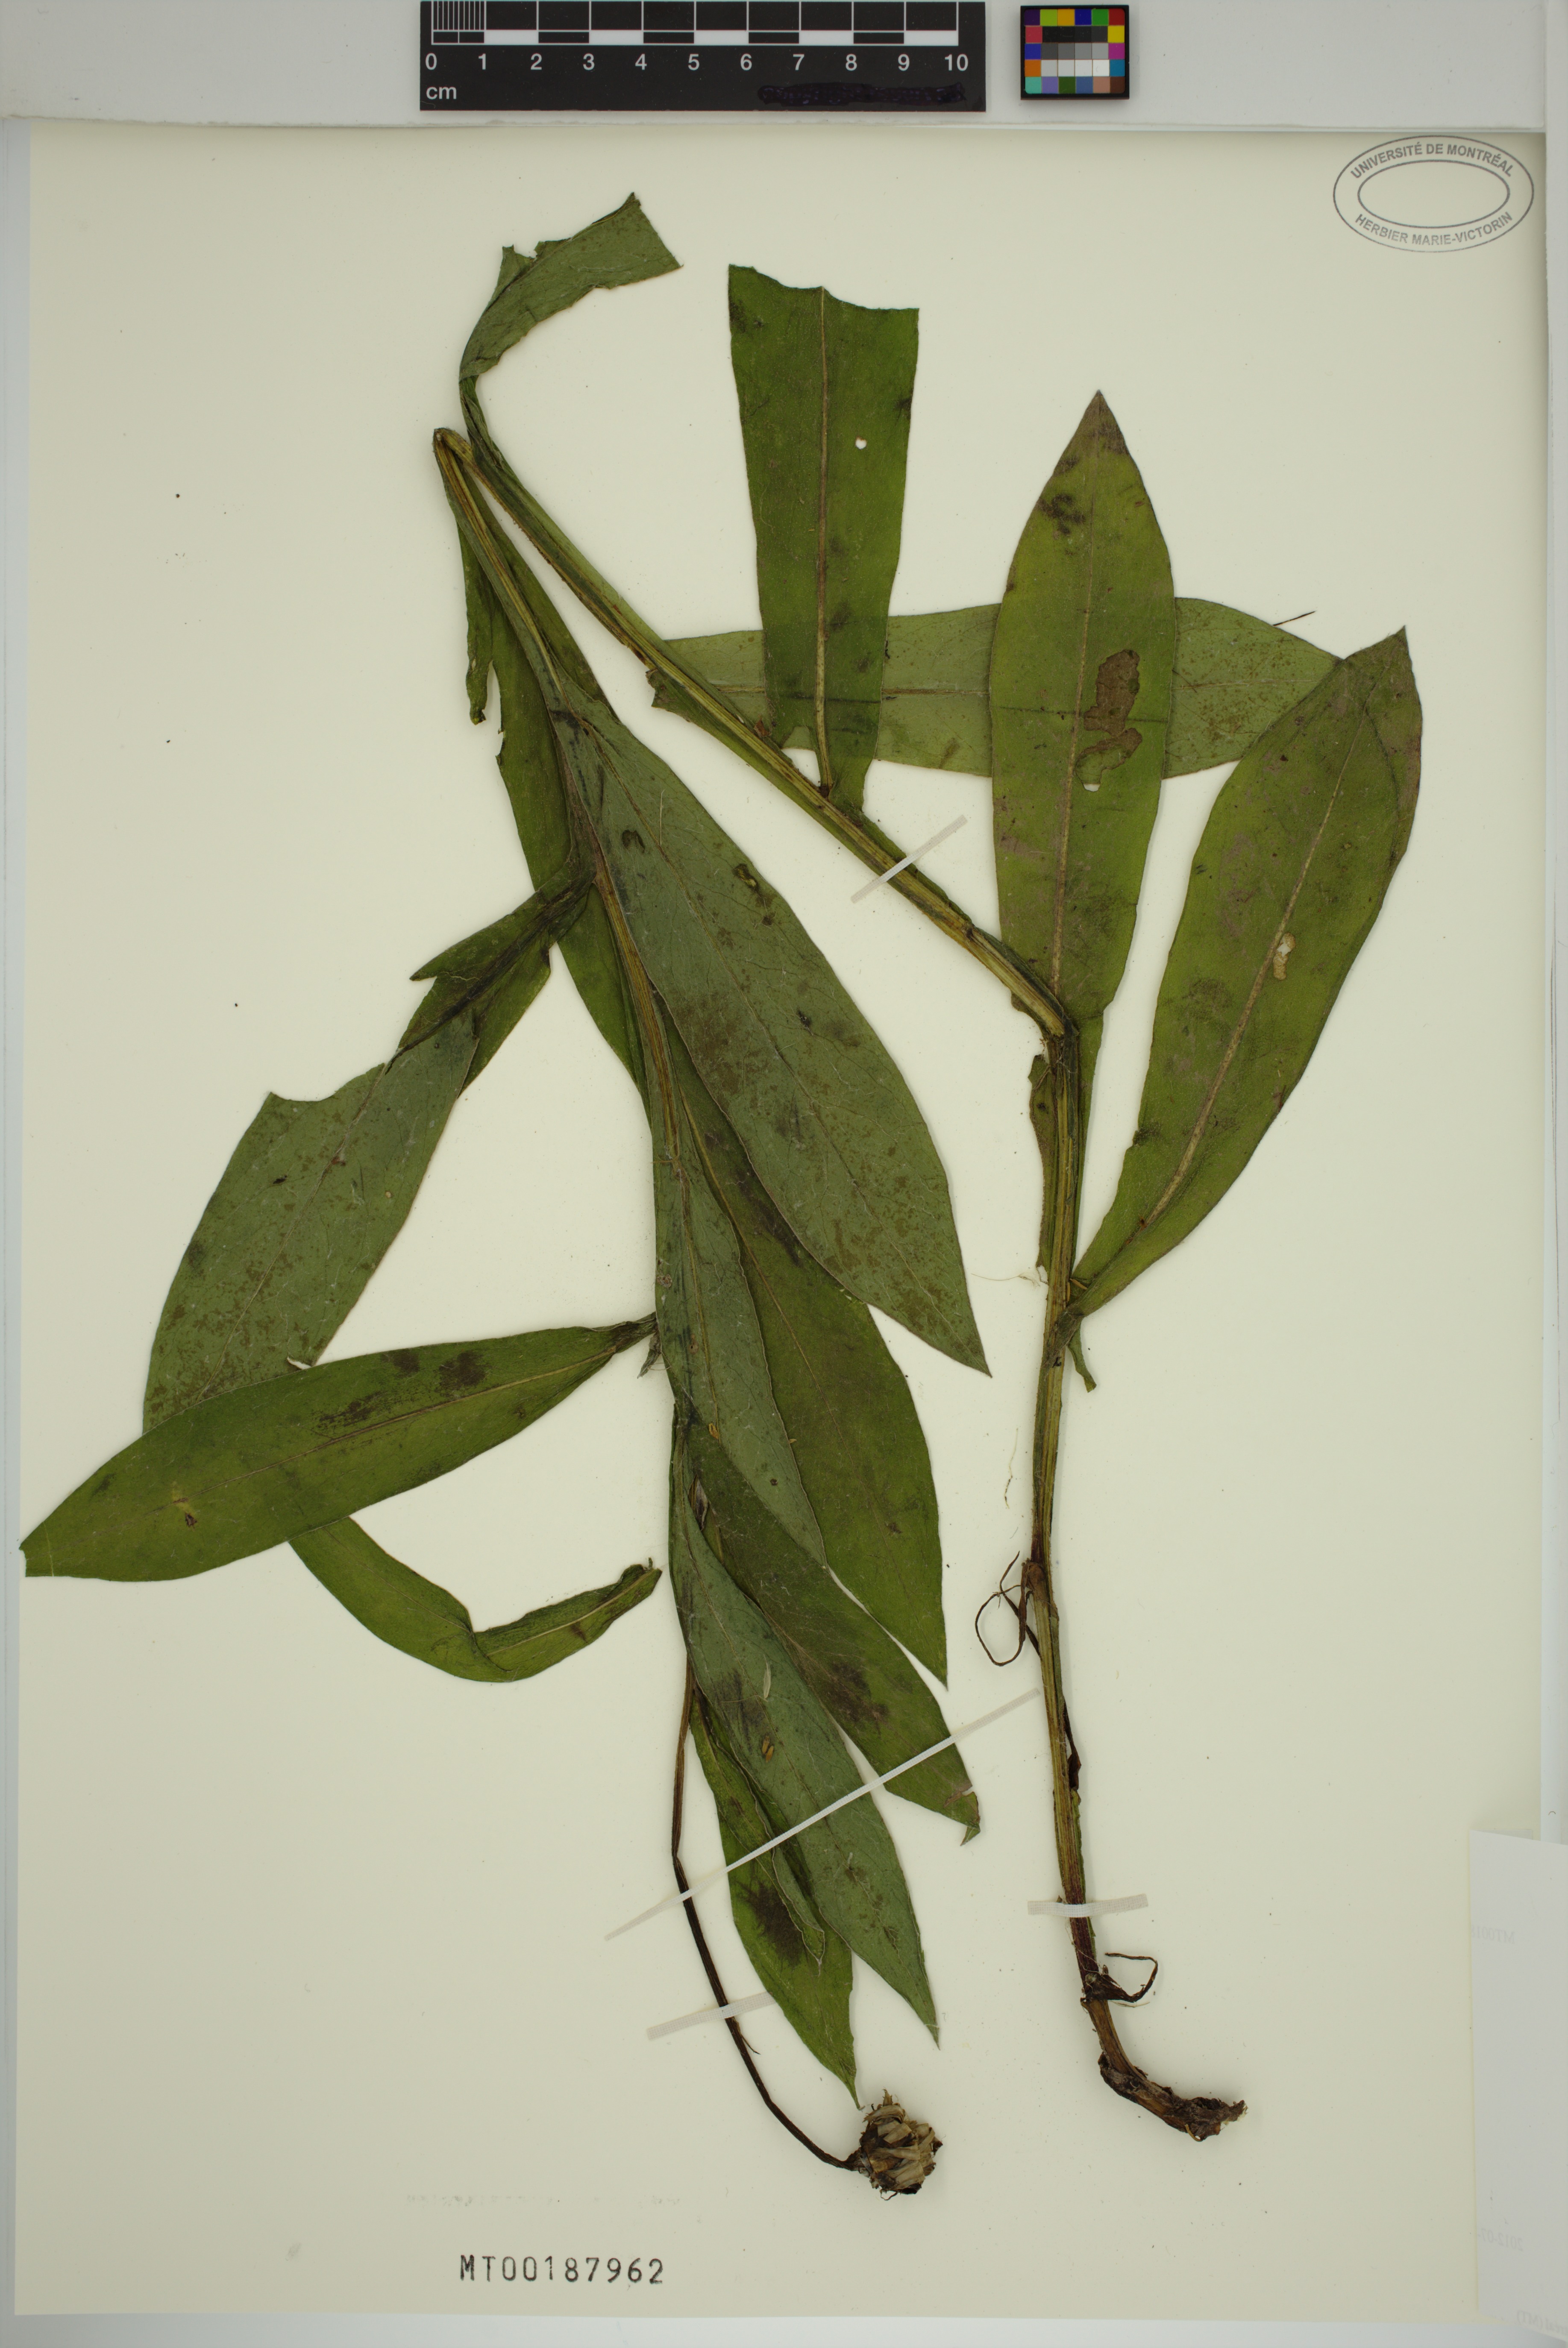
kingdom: Plantae
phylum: Tracheophyta
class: Magnoliopsida
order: Asterales
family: Asteraceae
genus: Centaurea
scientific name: Centaurea
